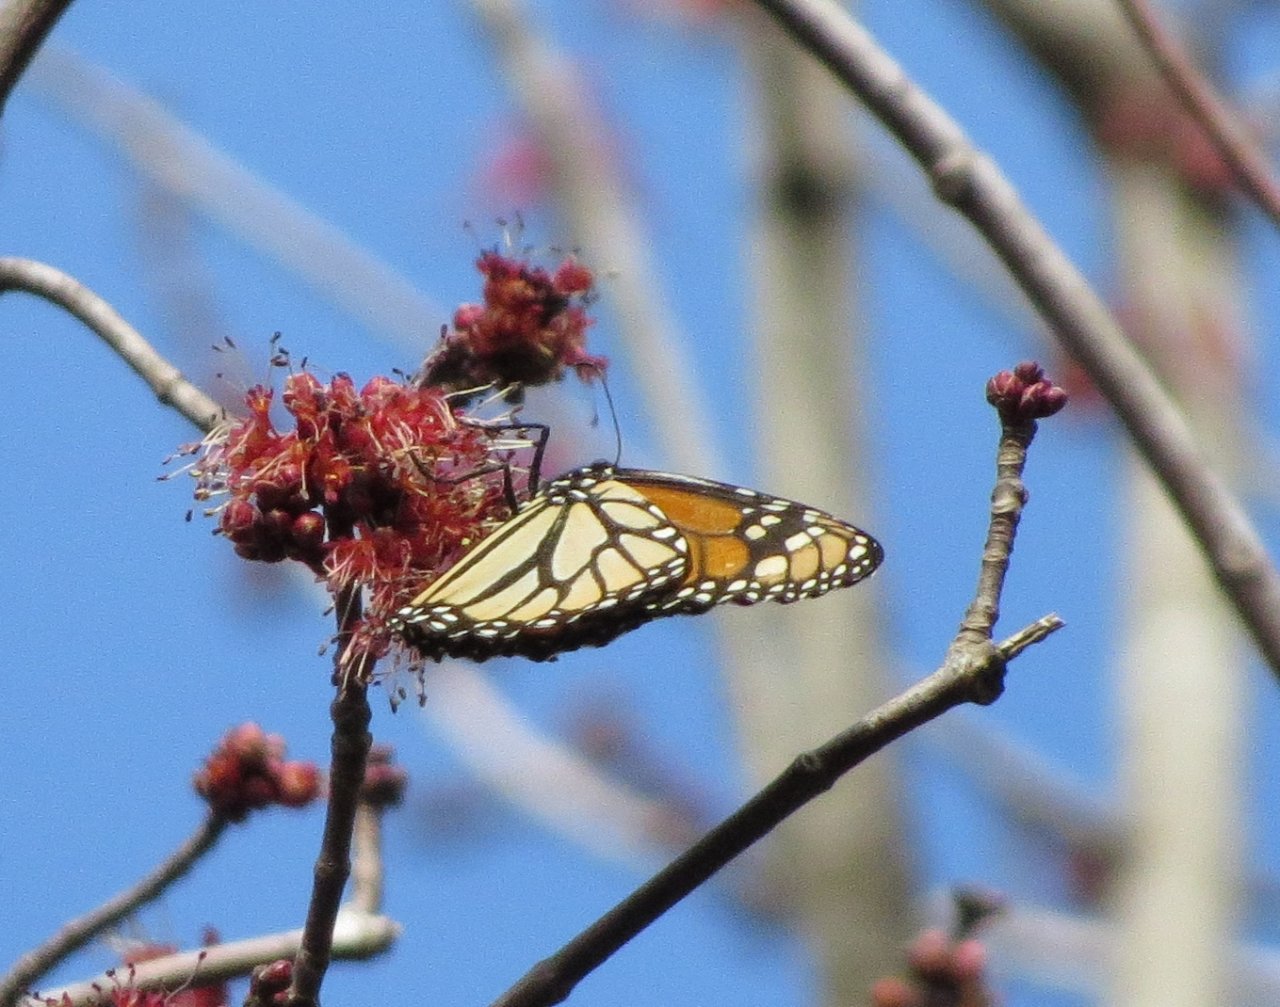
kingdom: Animalia
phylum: Arthropoda
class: Insecta
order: Lepidoptera
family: Nymphalidae
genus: Danaus
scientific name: Danaus plexippus
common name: Monarch
